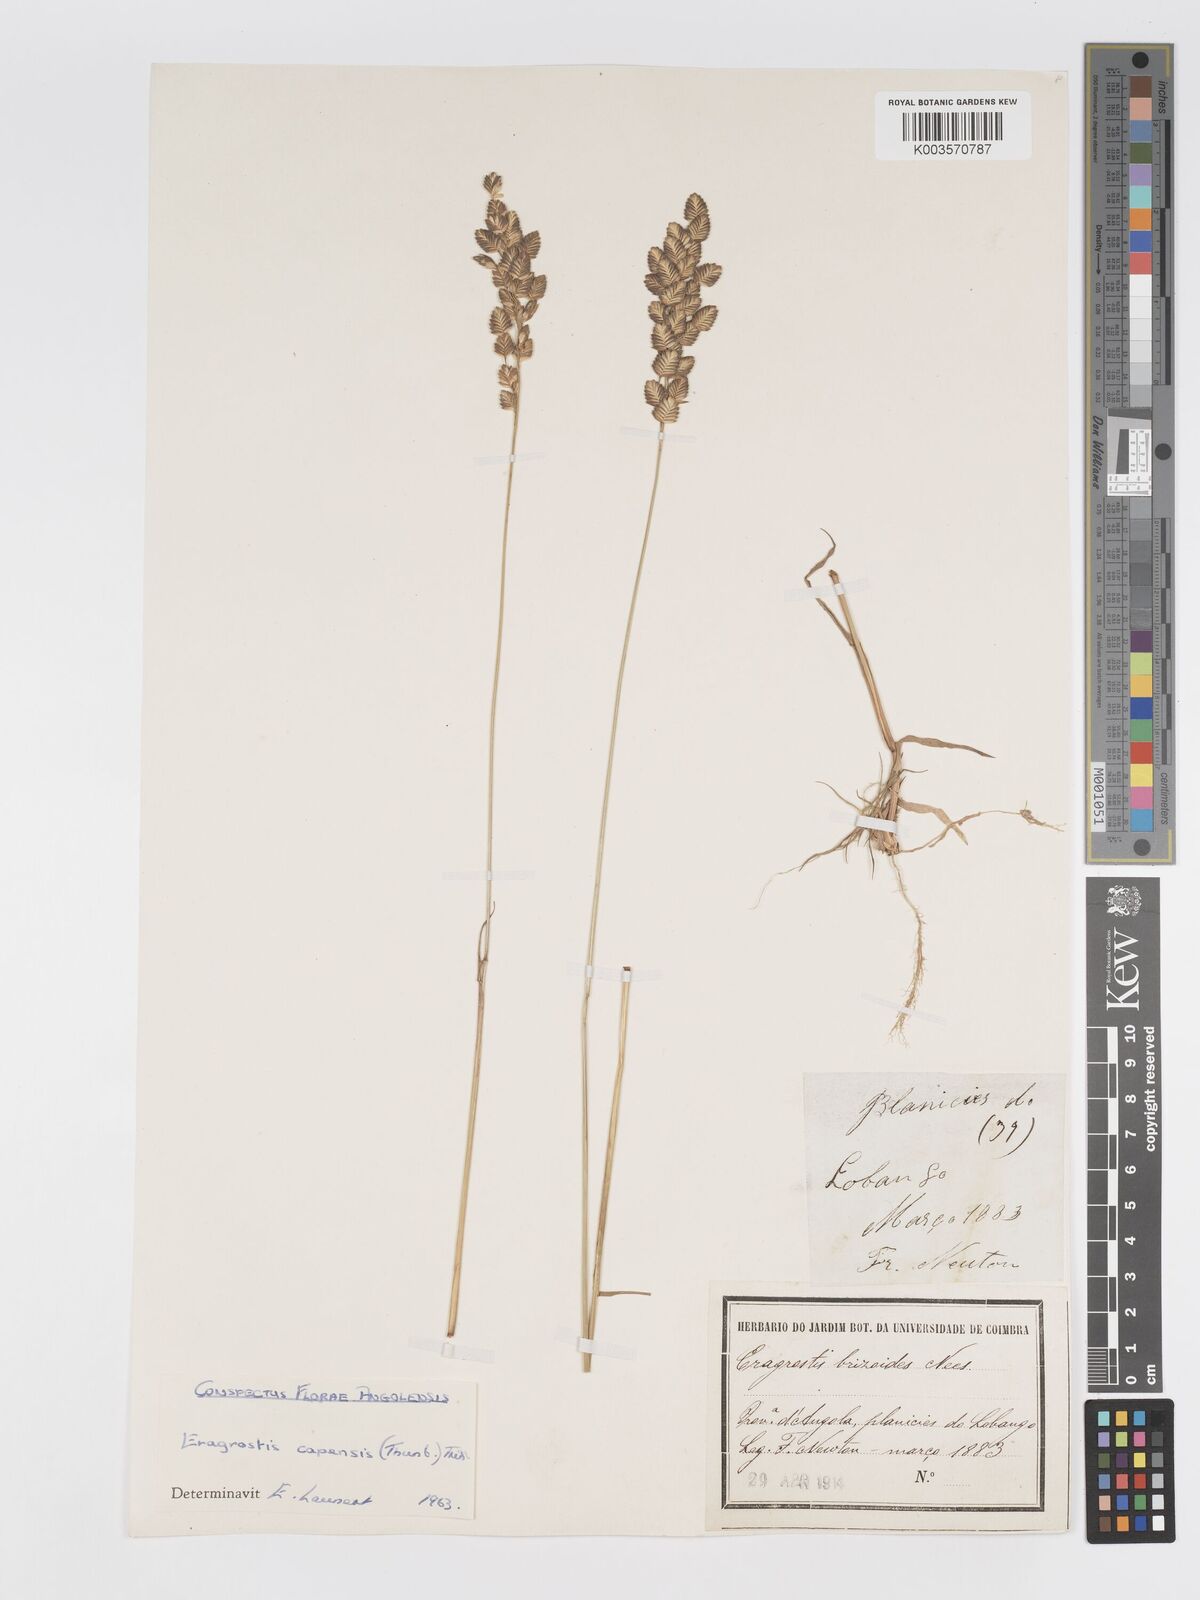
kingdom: Plantae
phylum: Tracheophyta
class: Liliopsida
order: Poales
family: Poaceae
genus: Eragrostis
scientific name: Eragrostis capensis
